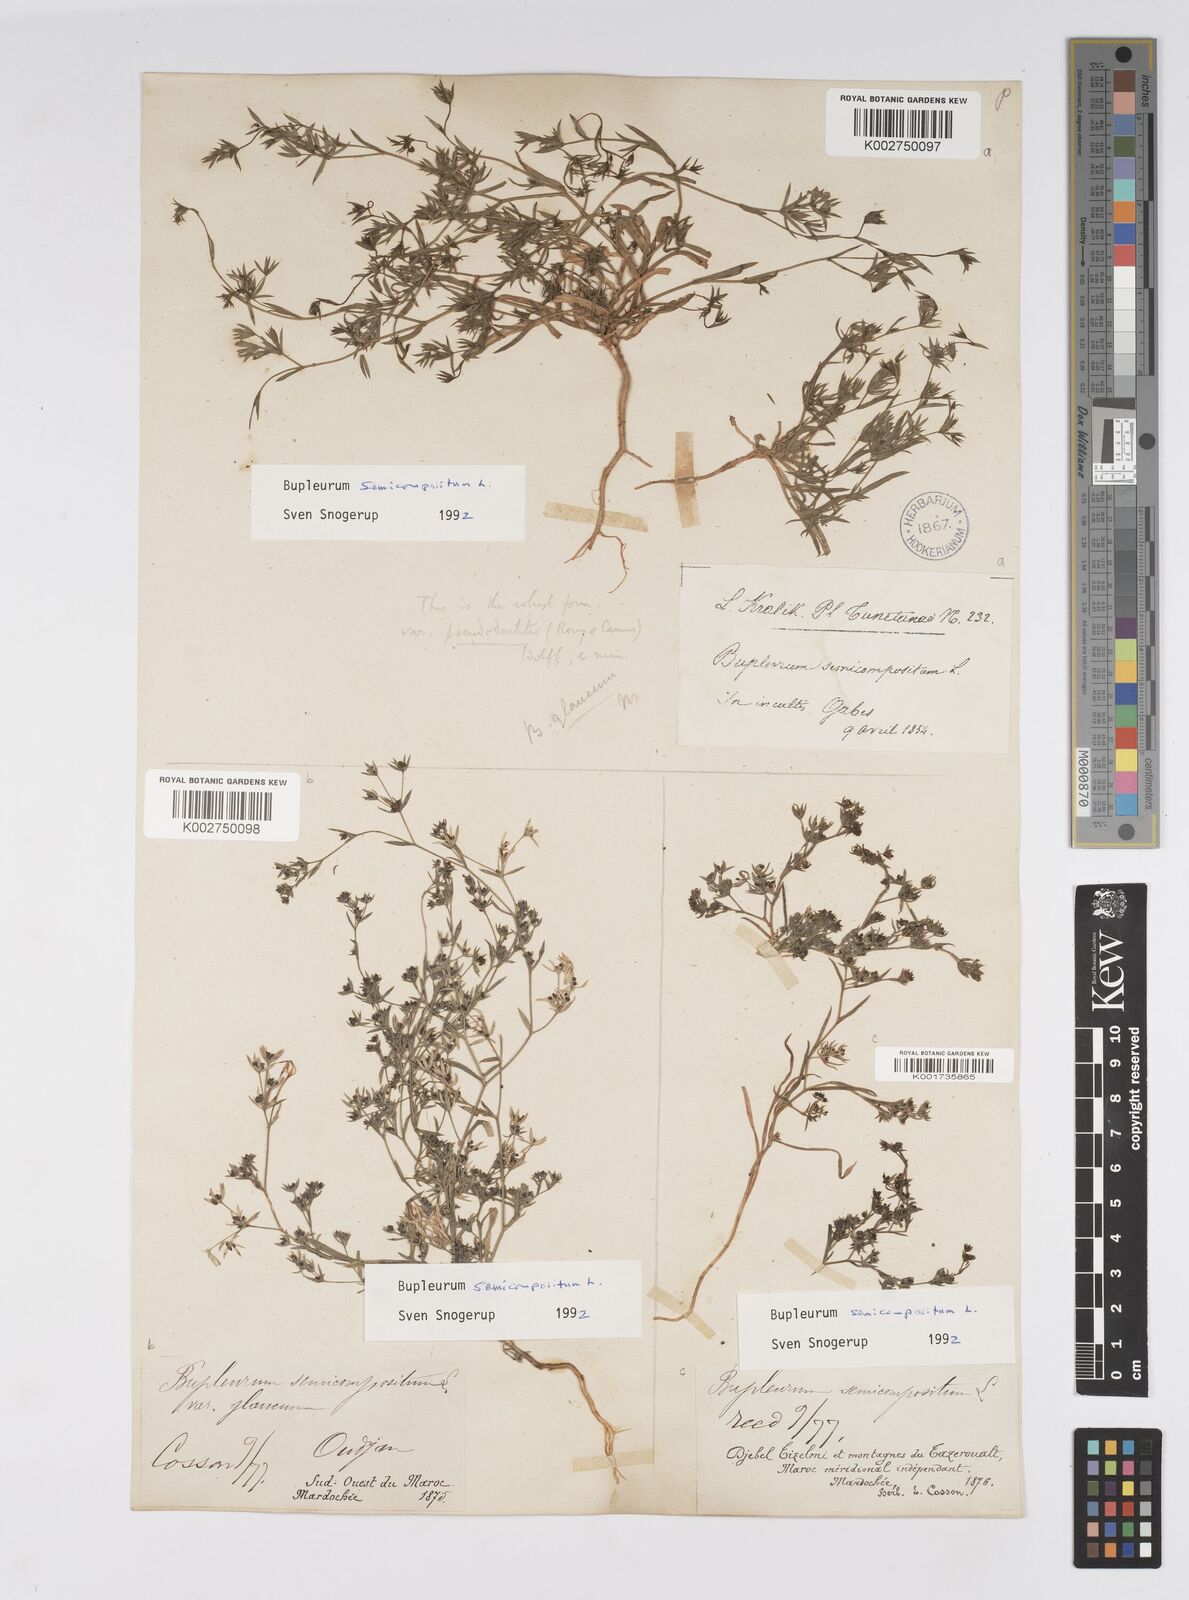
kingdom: Plantae
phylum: Tracheophyta
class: Magnoliopsida
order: Apiales
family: Apiaceae
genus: Bupleurum
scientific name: Bupleurum semicompositum
